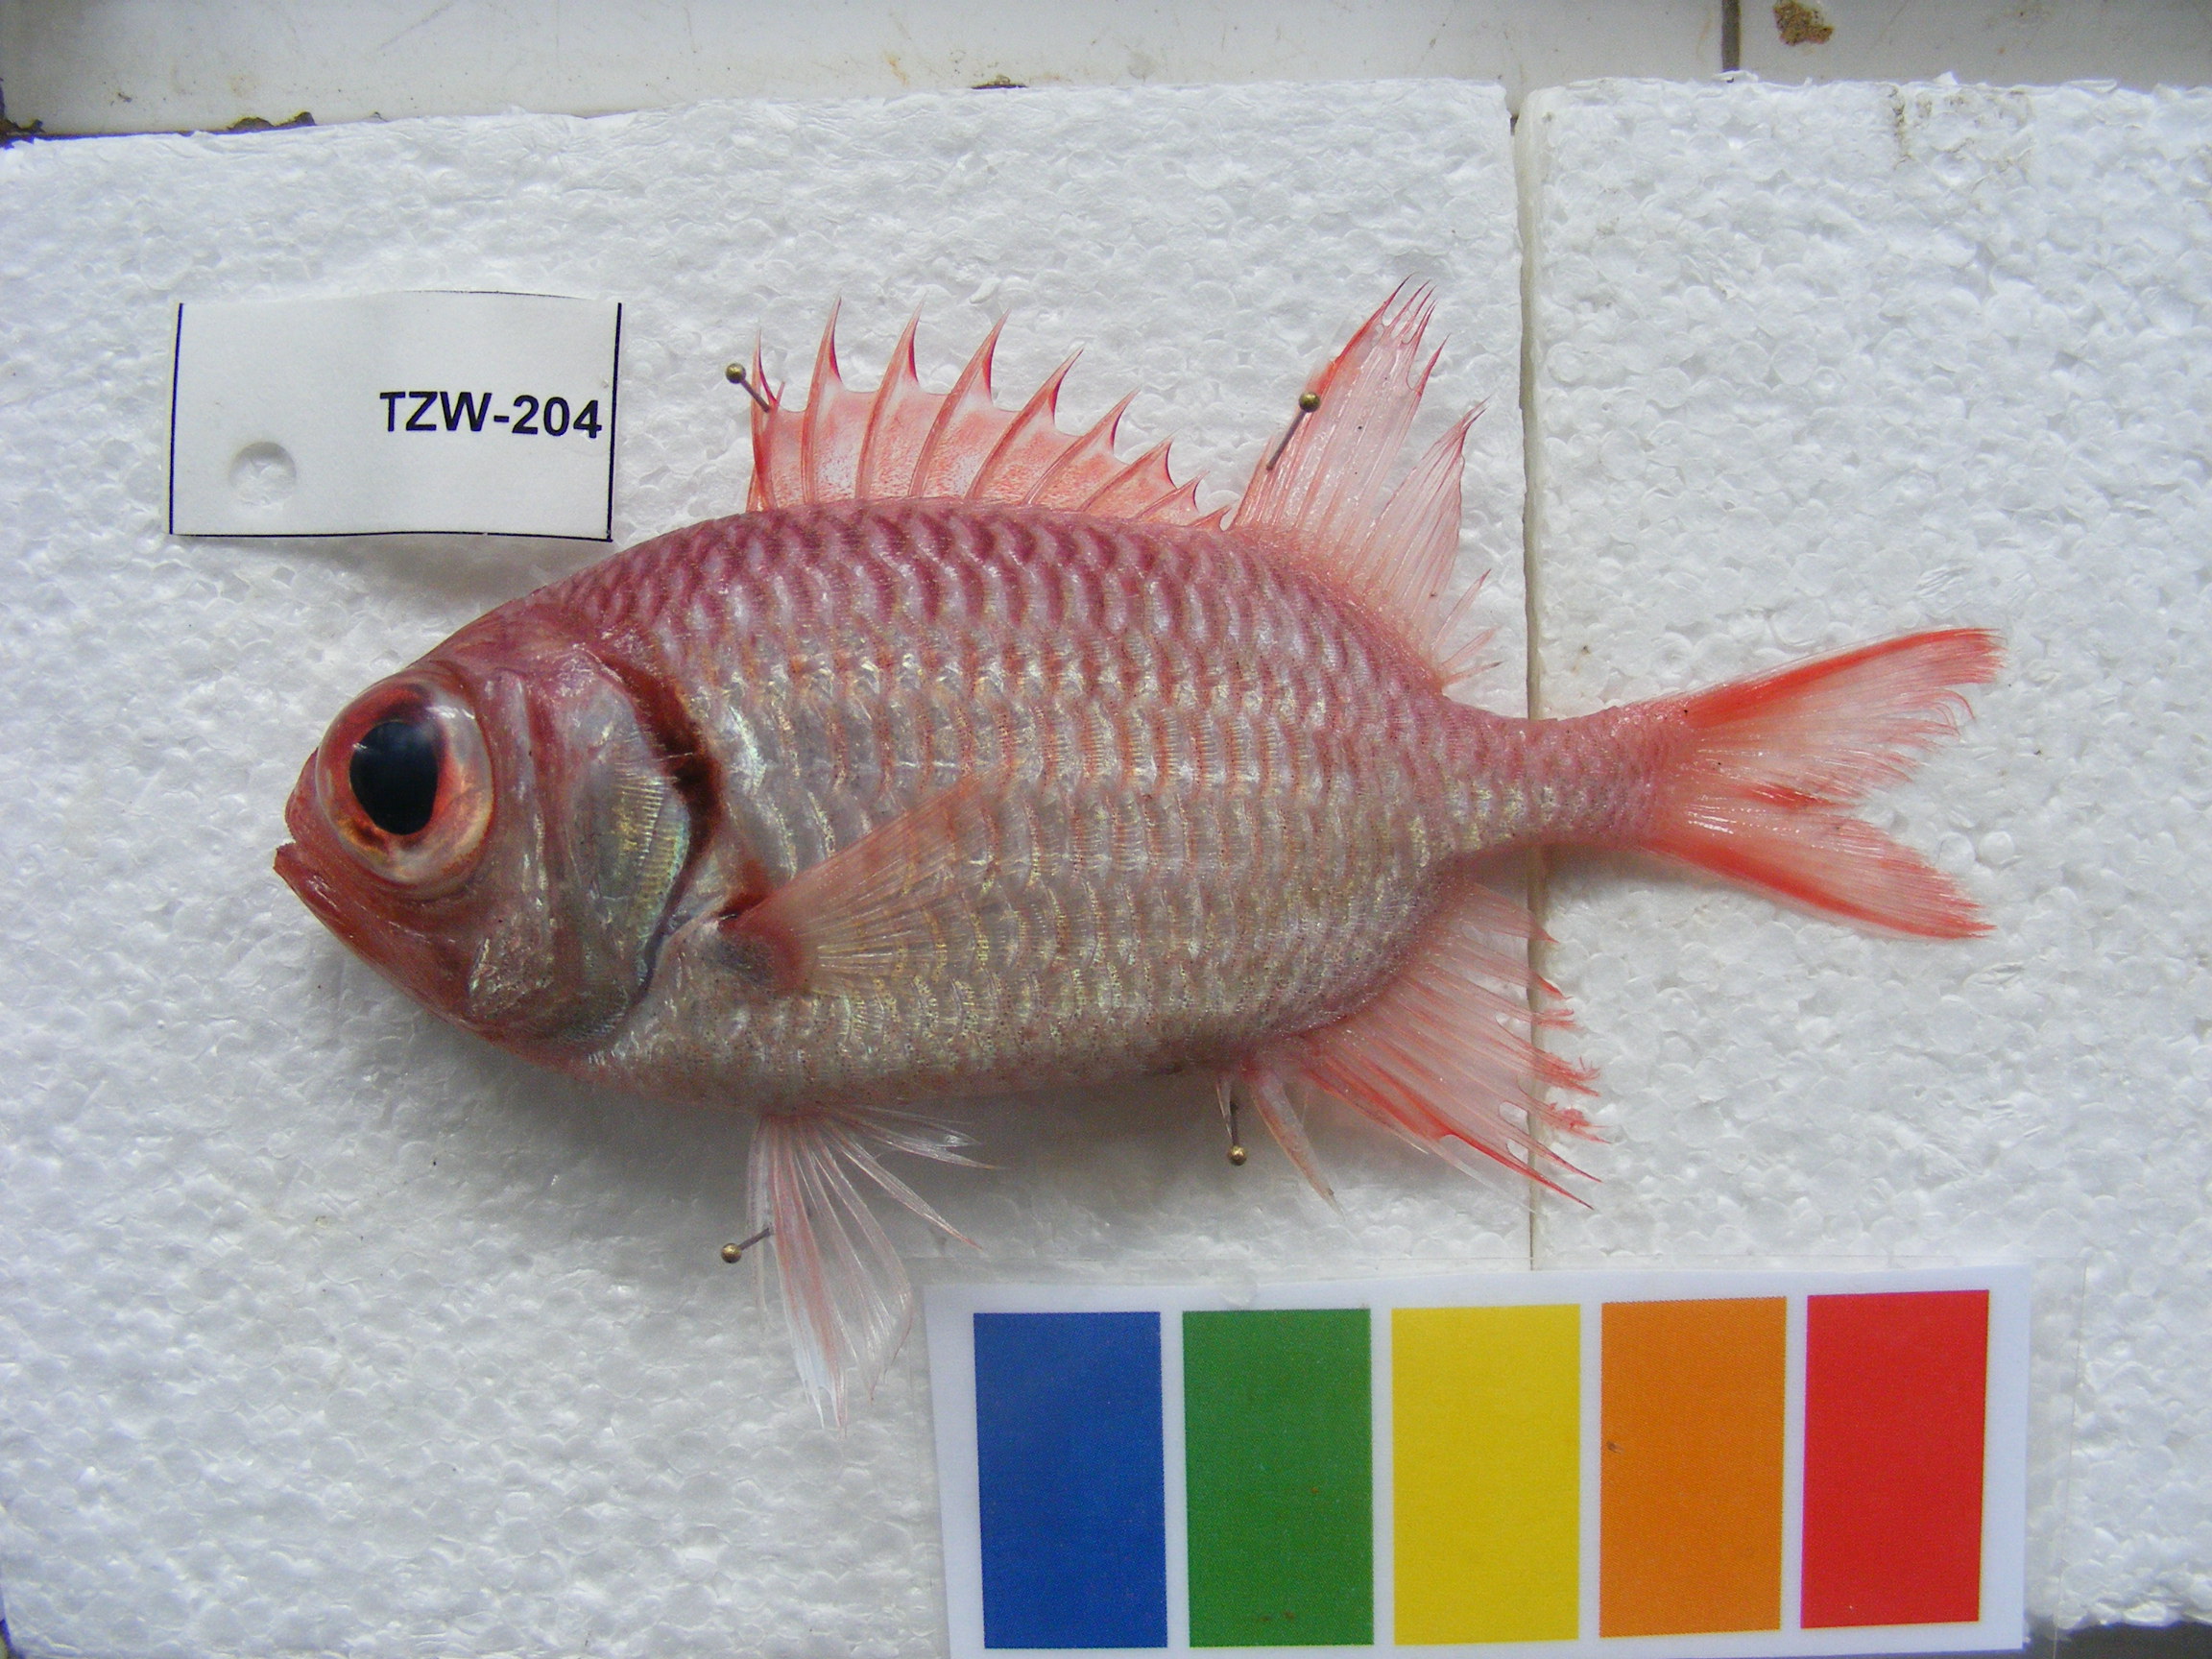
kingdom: Animalia
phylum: Chordata
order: Beryciformes
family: Holocentridae
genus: Myripristis
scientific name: Myripristis hexagona
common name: Blacktip soldierfish
